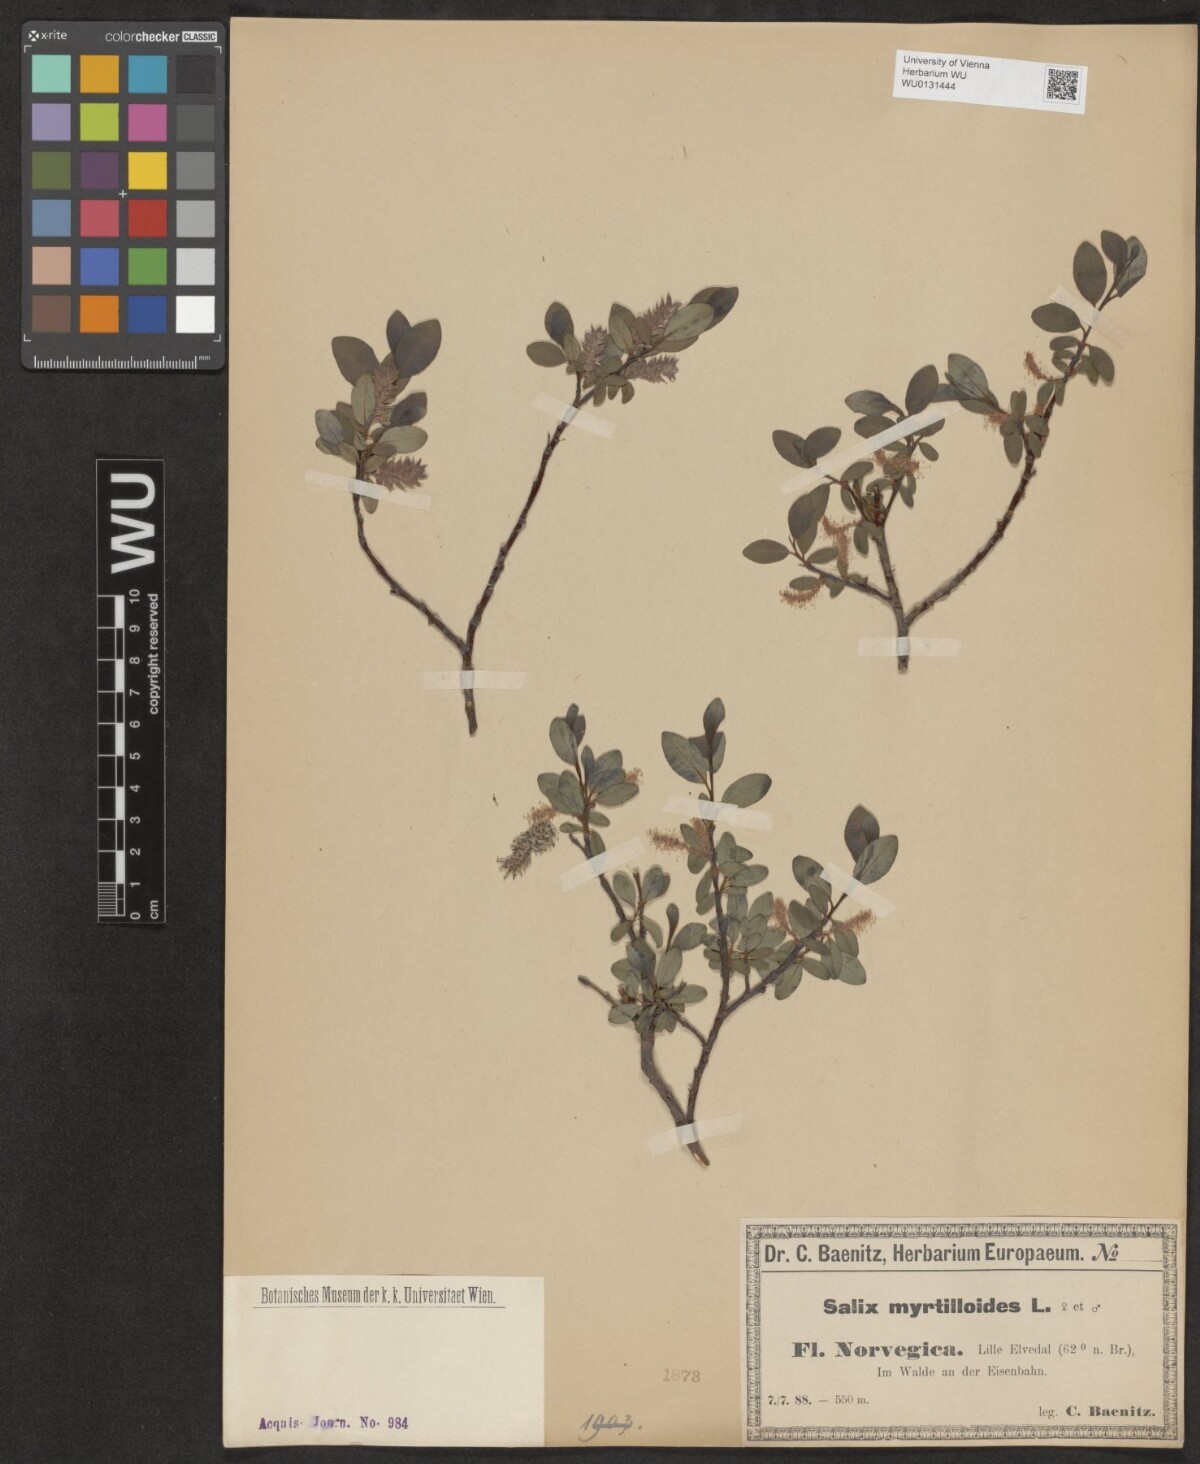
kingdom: Plantae
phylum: Tracheophyta
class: Magnoliopsida
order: Malpighiales
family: Salicaceae
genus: Salix
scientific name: Salix myrsinifolia
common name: Dark-leaved willow
